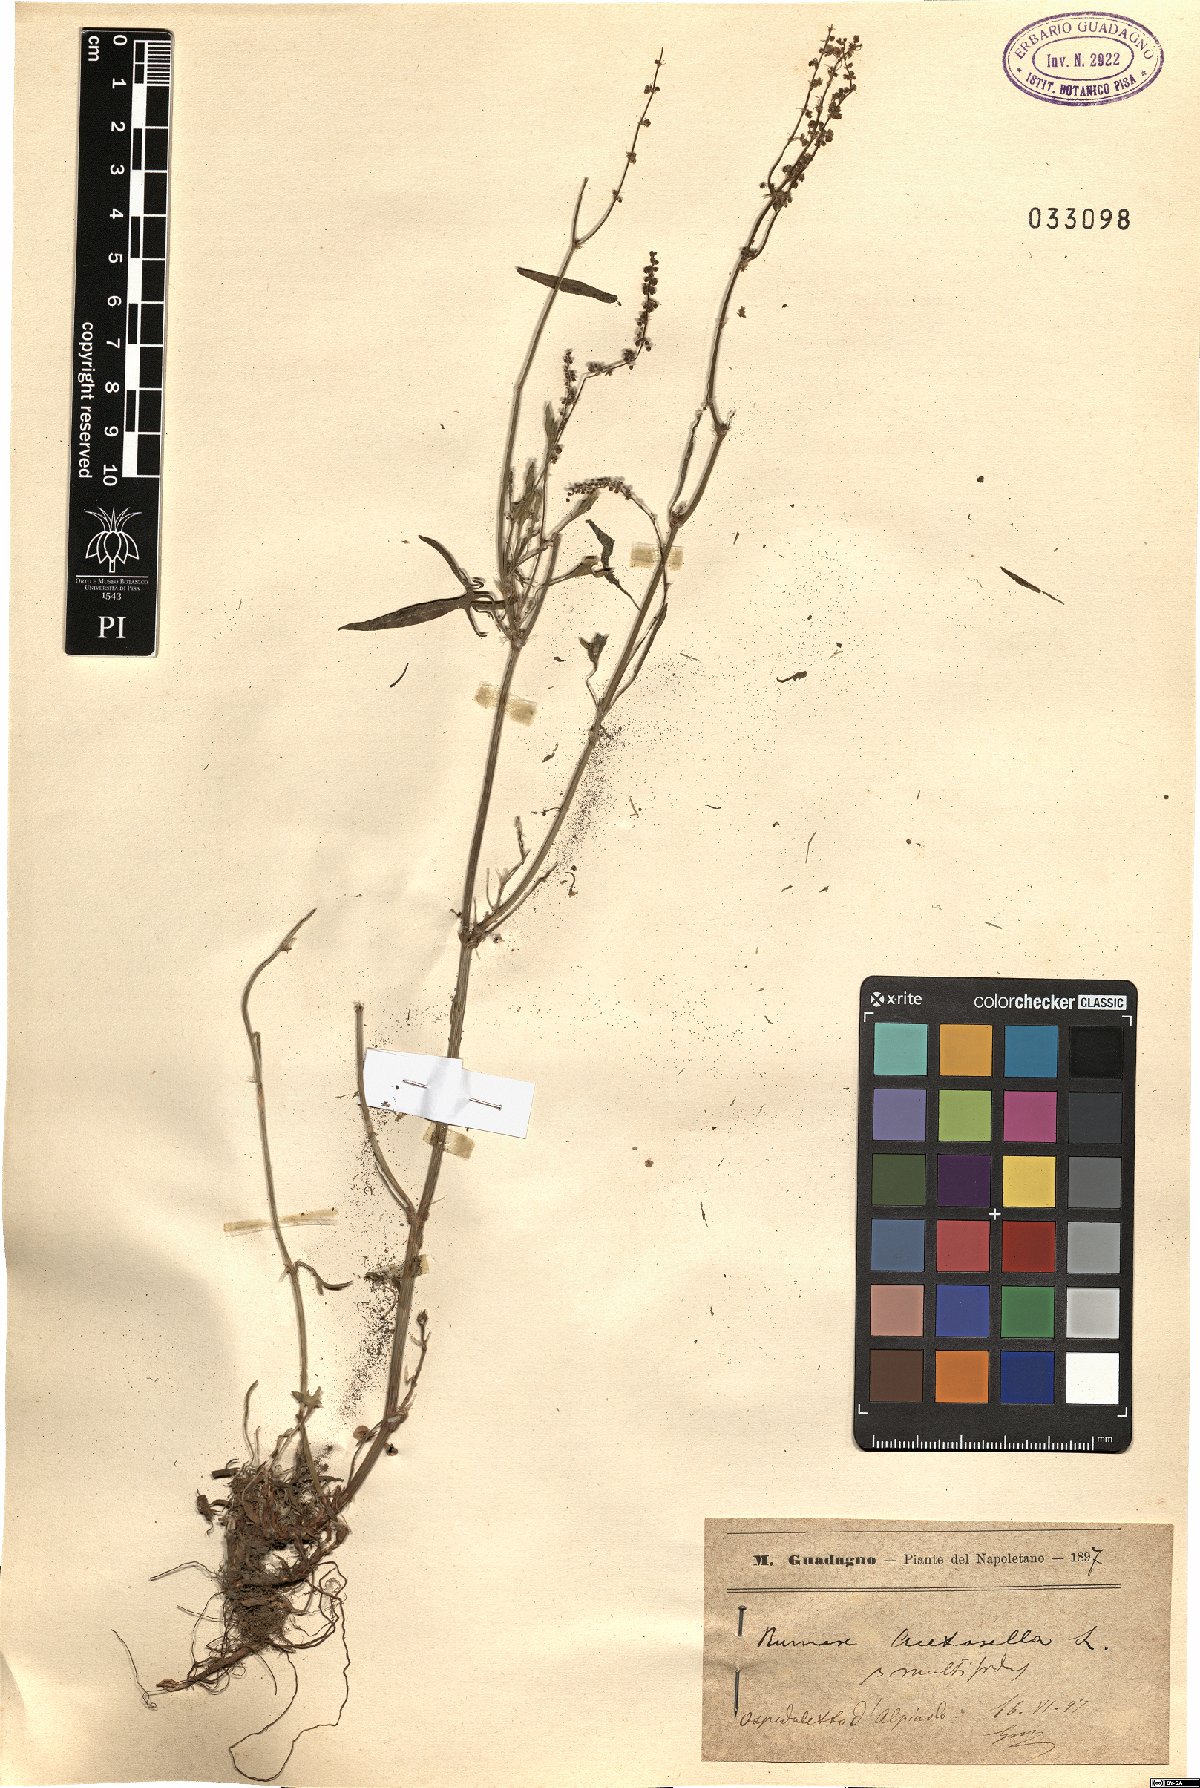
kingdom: Plantae
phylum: Tracheophyta
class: Magnoliopsida
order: Caryophyllales
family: Polygonaceae
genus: Rumex
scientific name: Rumex acetosella
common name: Common sheep sorrel
